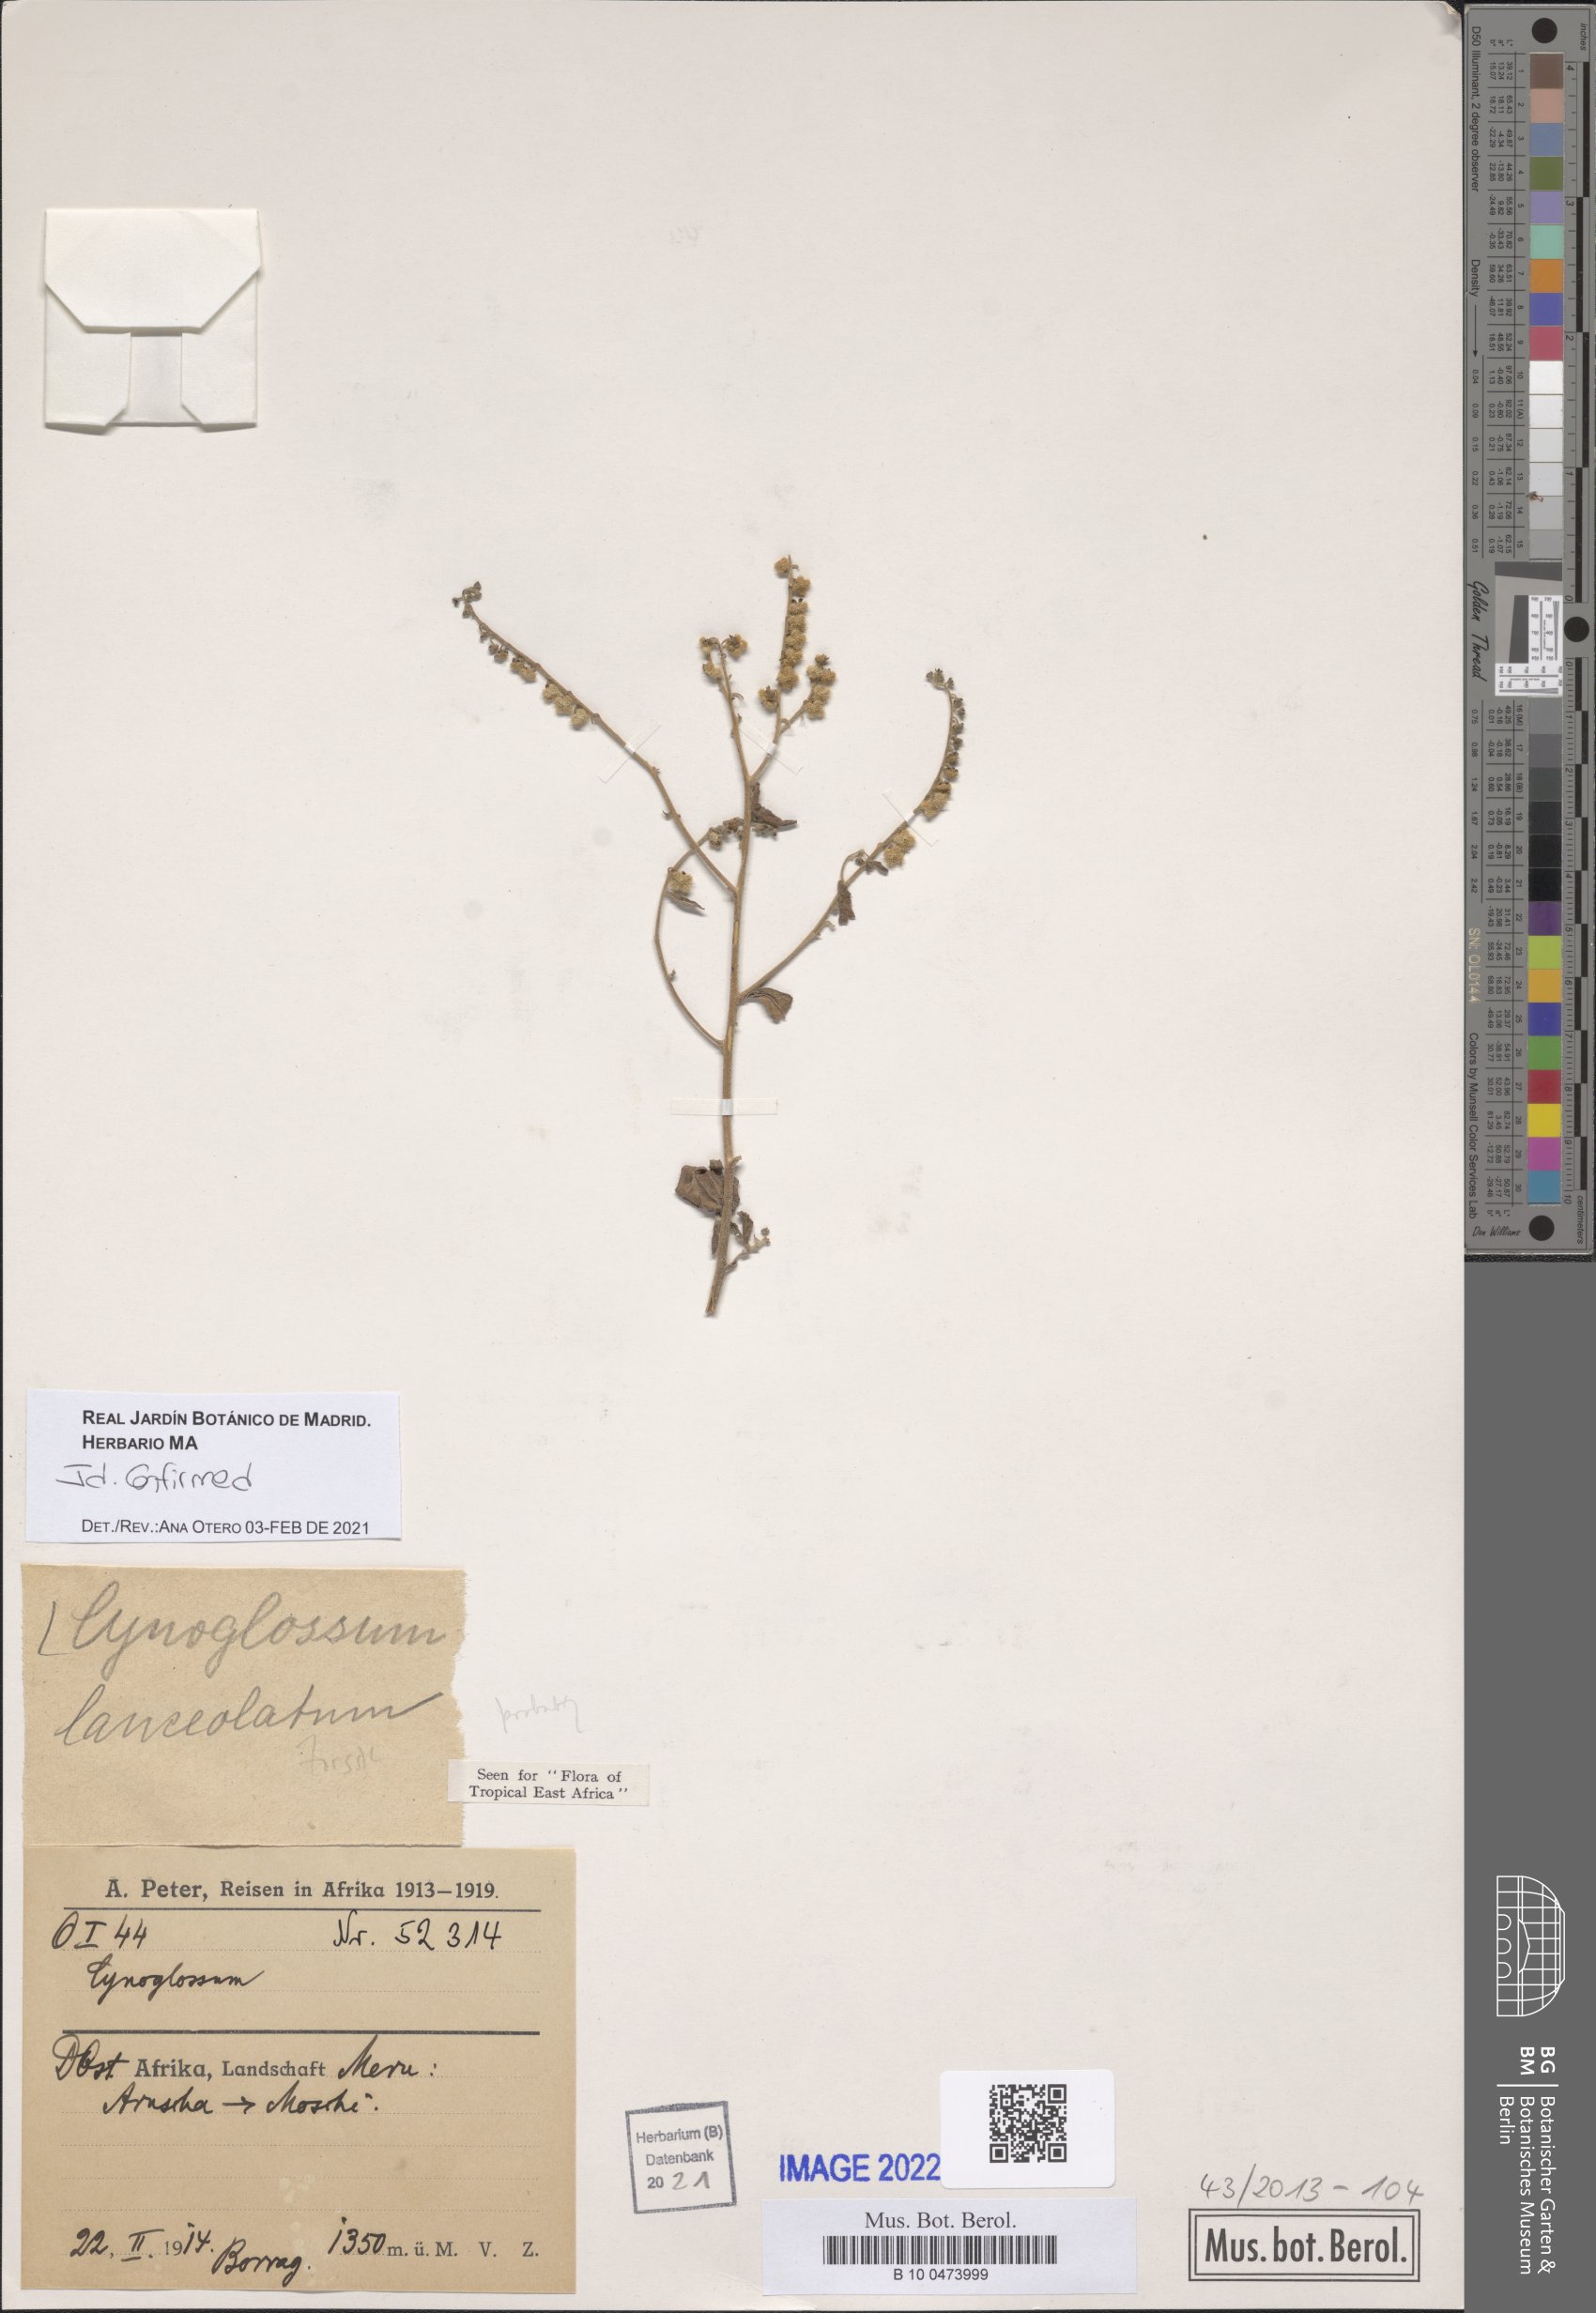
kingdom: Plantae
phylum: Tracheophyta
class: Magnoliopsida
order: Boraginales
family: Boraginaceae
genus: Paracynoglossum
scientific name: Paracynoglossum lanceolatum
